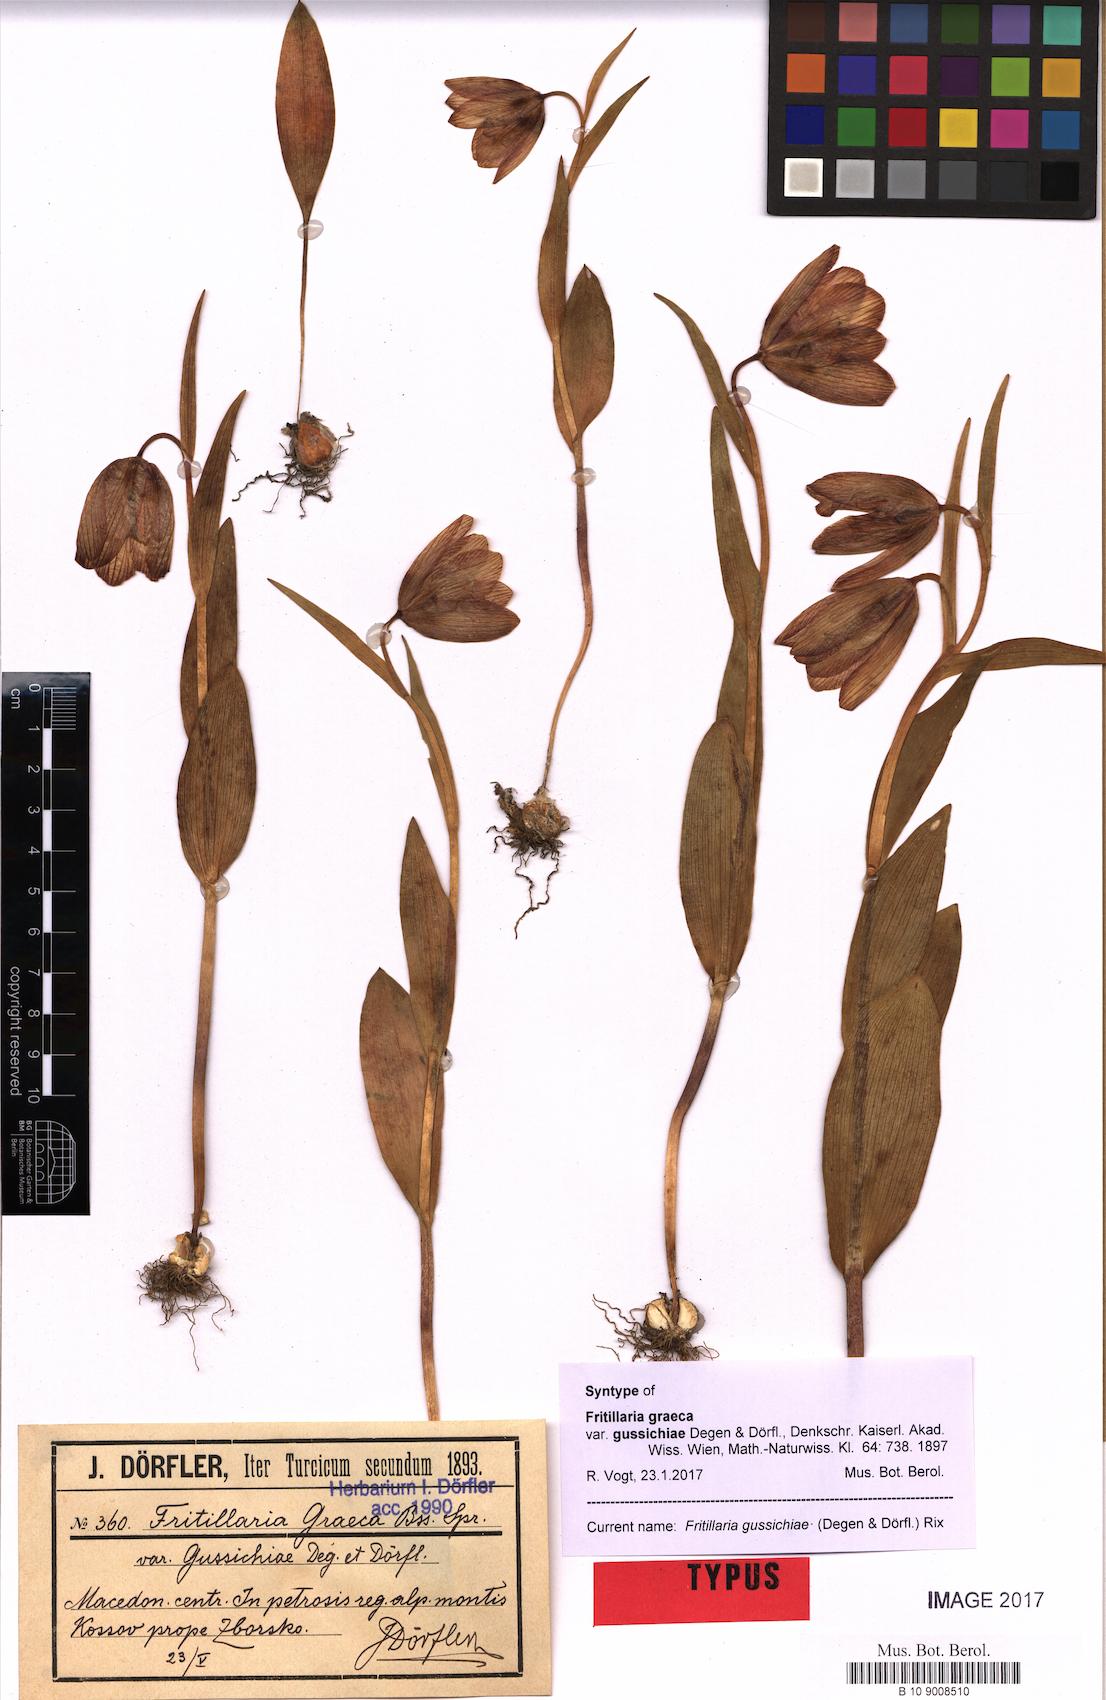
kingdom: Plantae
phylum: Tracheophyta
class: Liliopsida
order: Liliales
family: Liliaceae
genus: Fritillaria
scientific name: Fritillaria gussichiae
